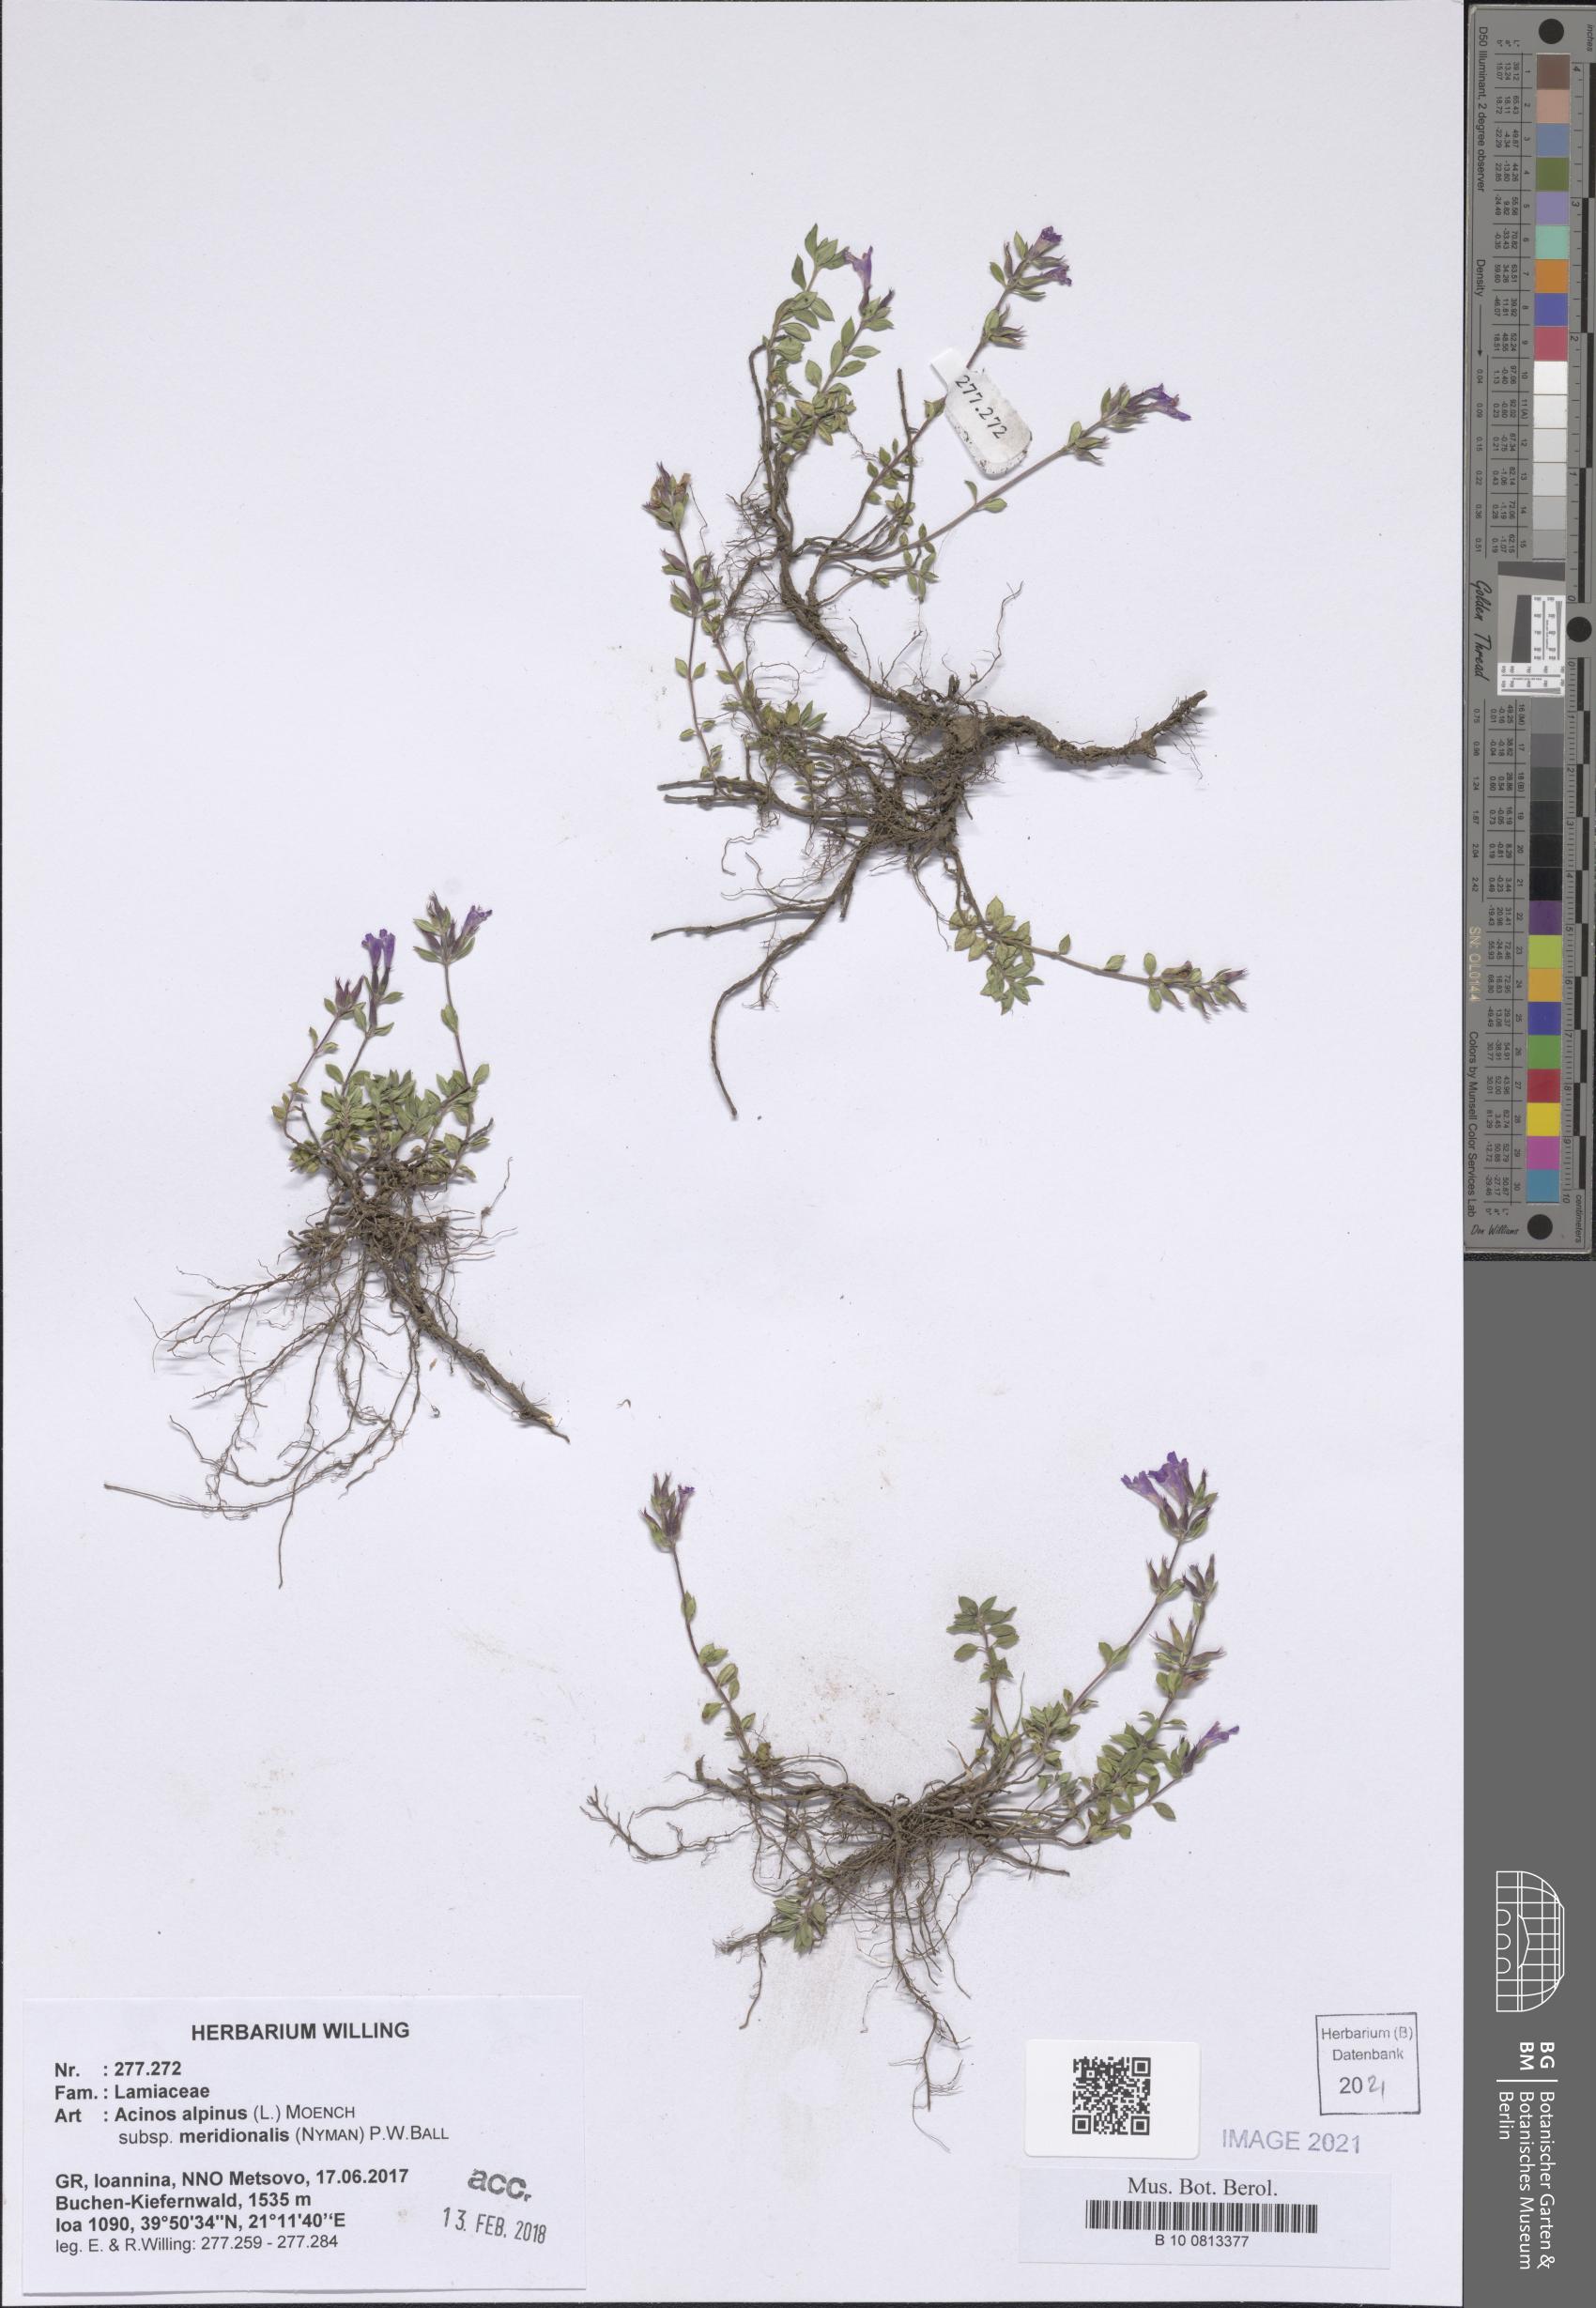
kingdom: Plantae
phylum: Tracheophyta
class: Magnoliopsida
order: Lamiales
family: Lamiaceae
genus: Clinopodium
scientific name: Clinopodium alpinum
